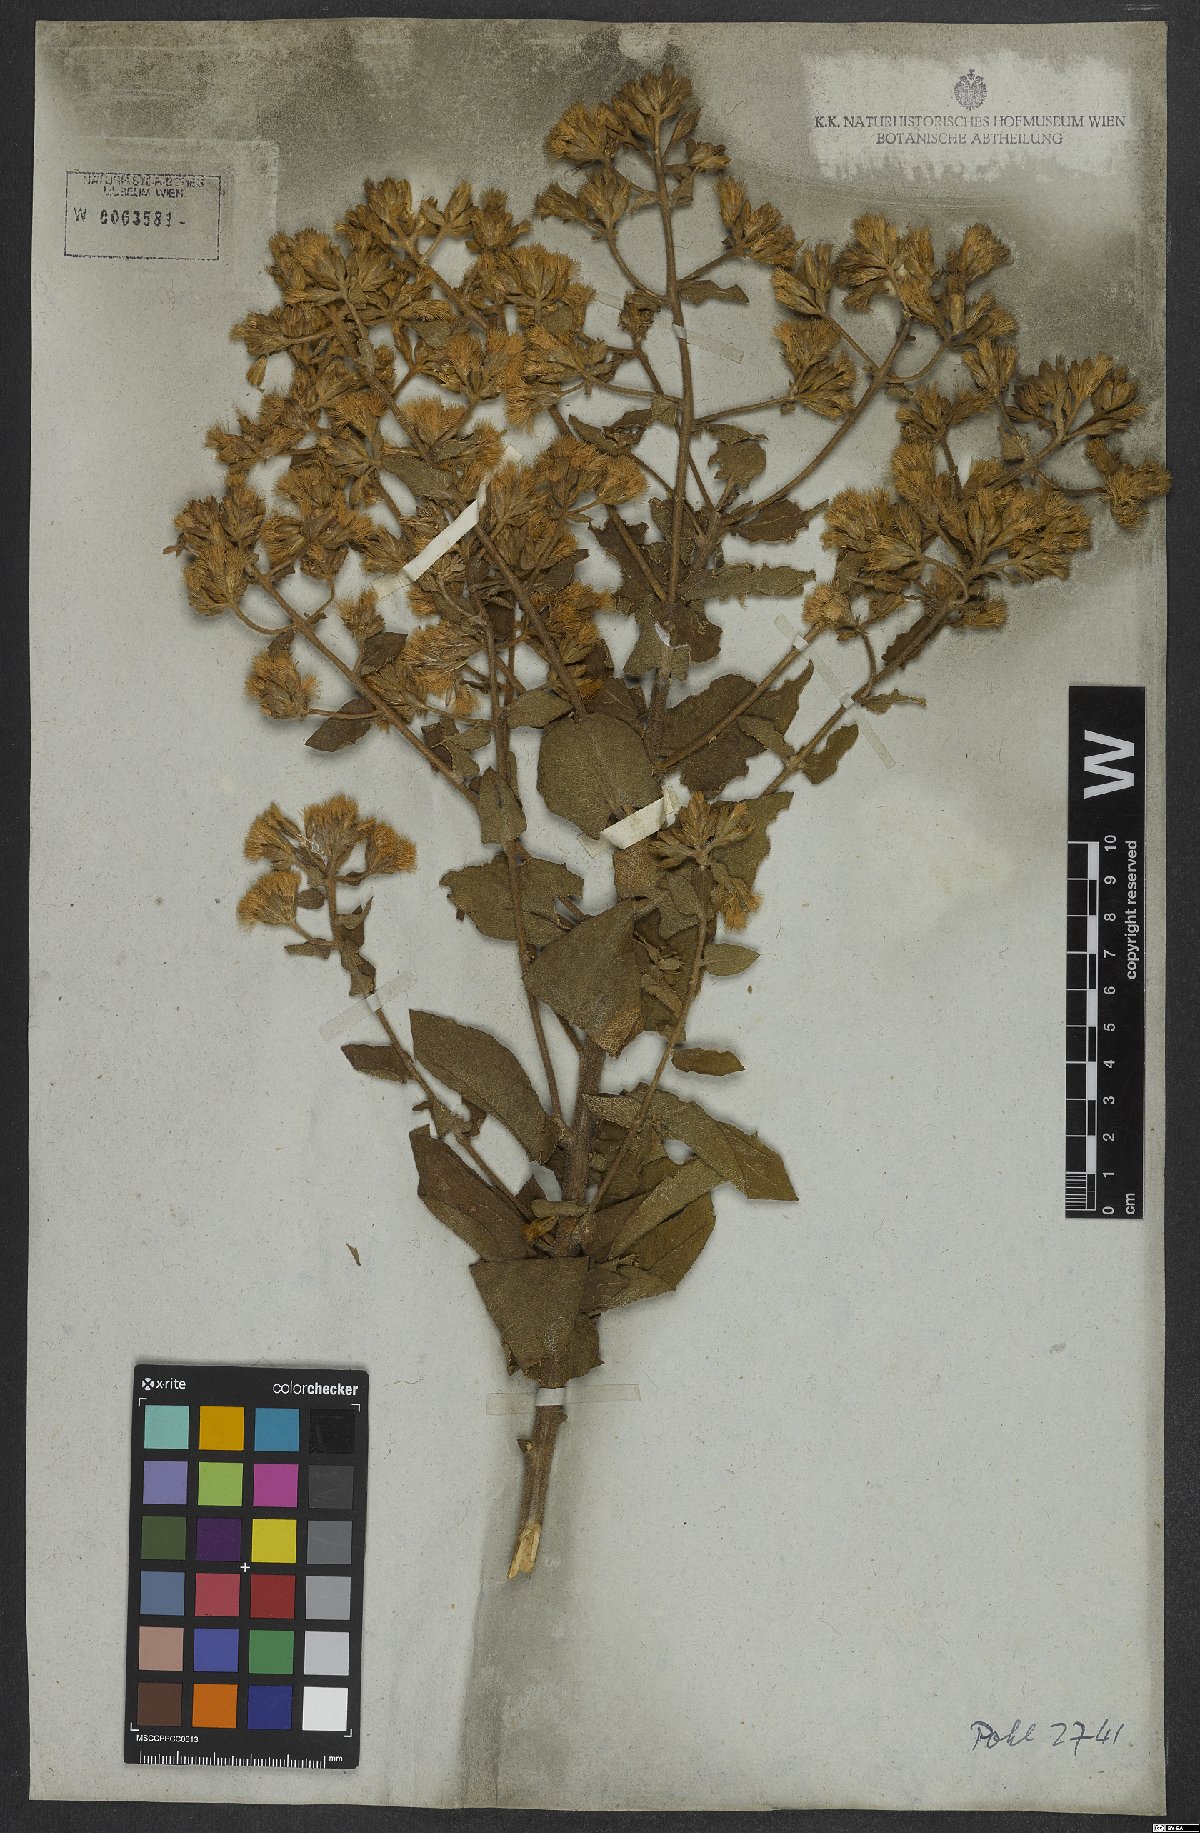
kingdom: Plantae
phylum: Tracheophyta
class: Magnoliopsida
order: Asterales
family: Asteraceae
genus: Mikania
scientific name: Mikania pohlii
